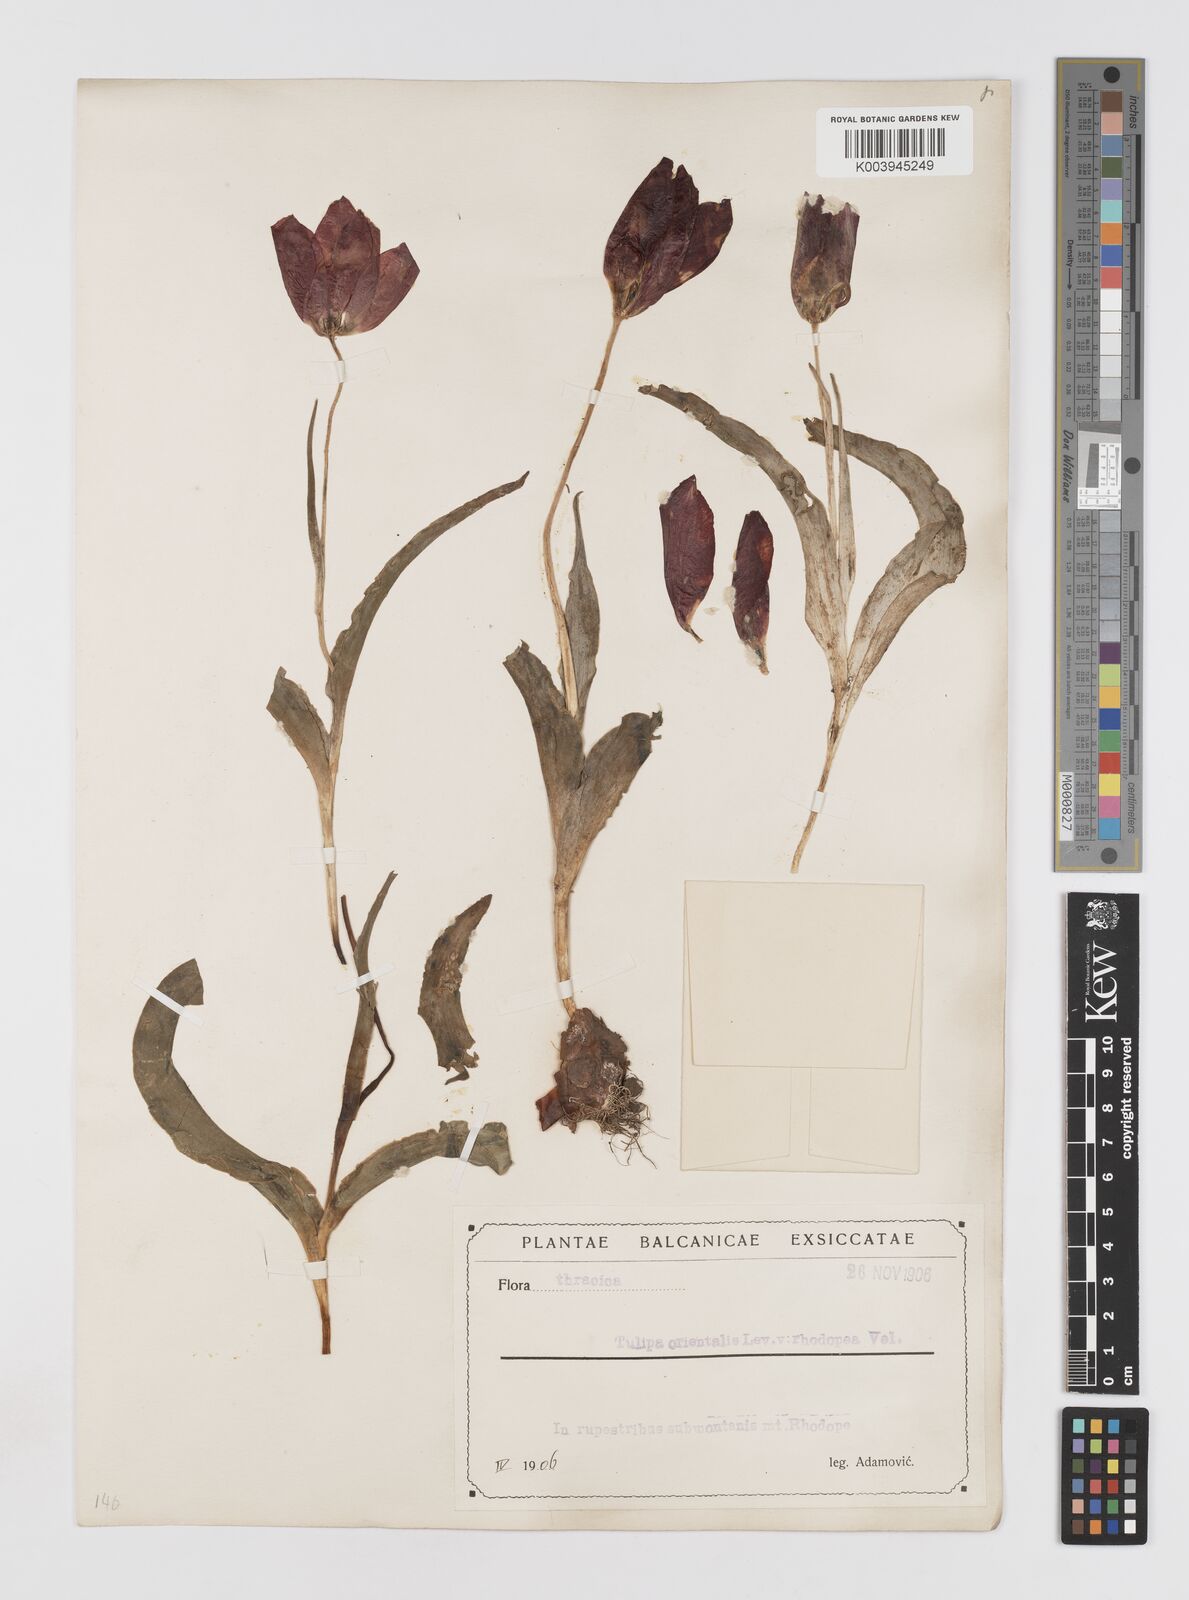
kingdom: Plantae
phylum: Tracheophyta
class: Liliopsida
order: Liliales
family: Liliaceae
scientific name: Liliaceae
